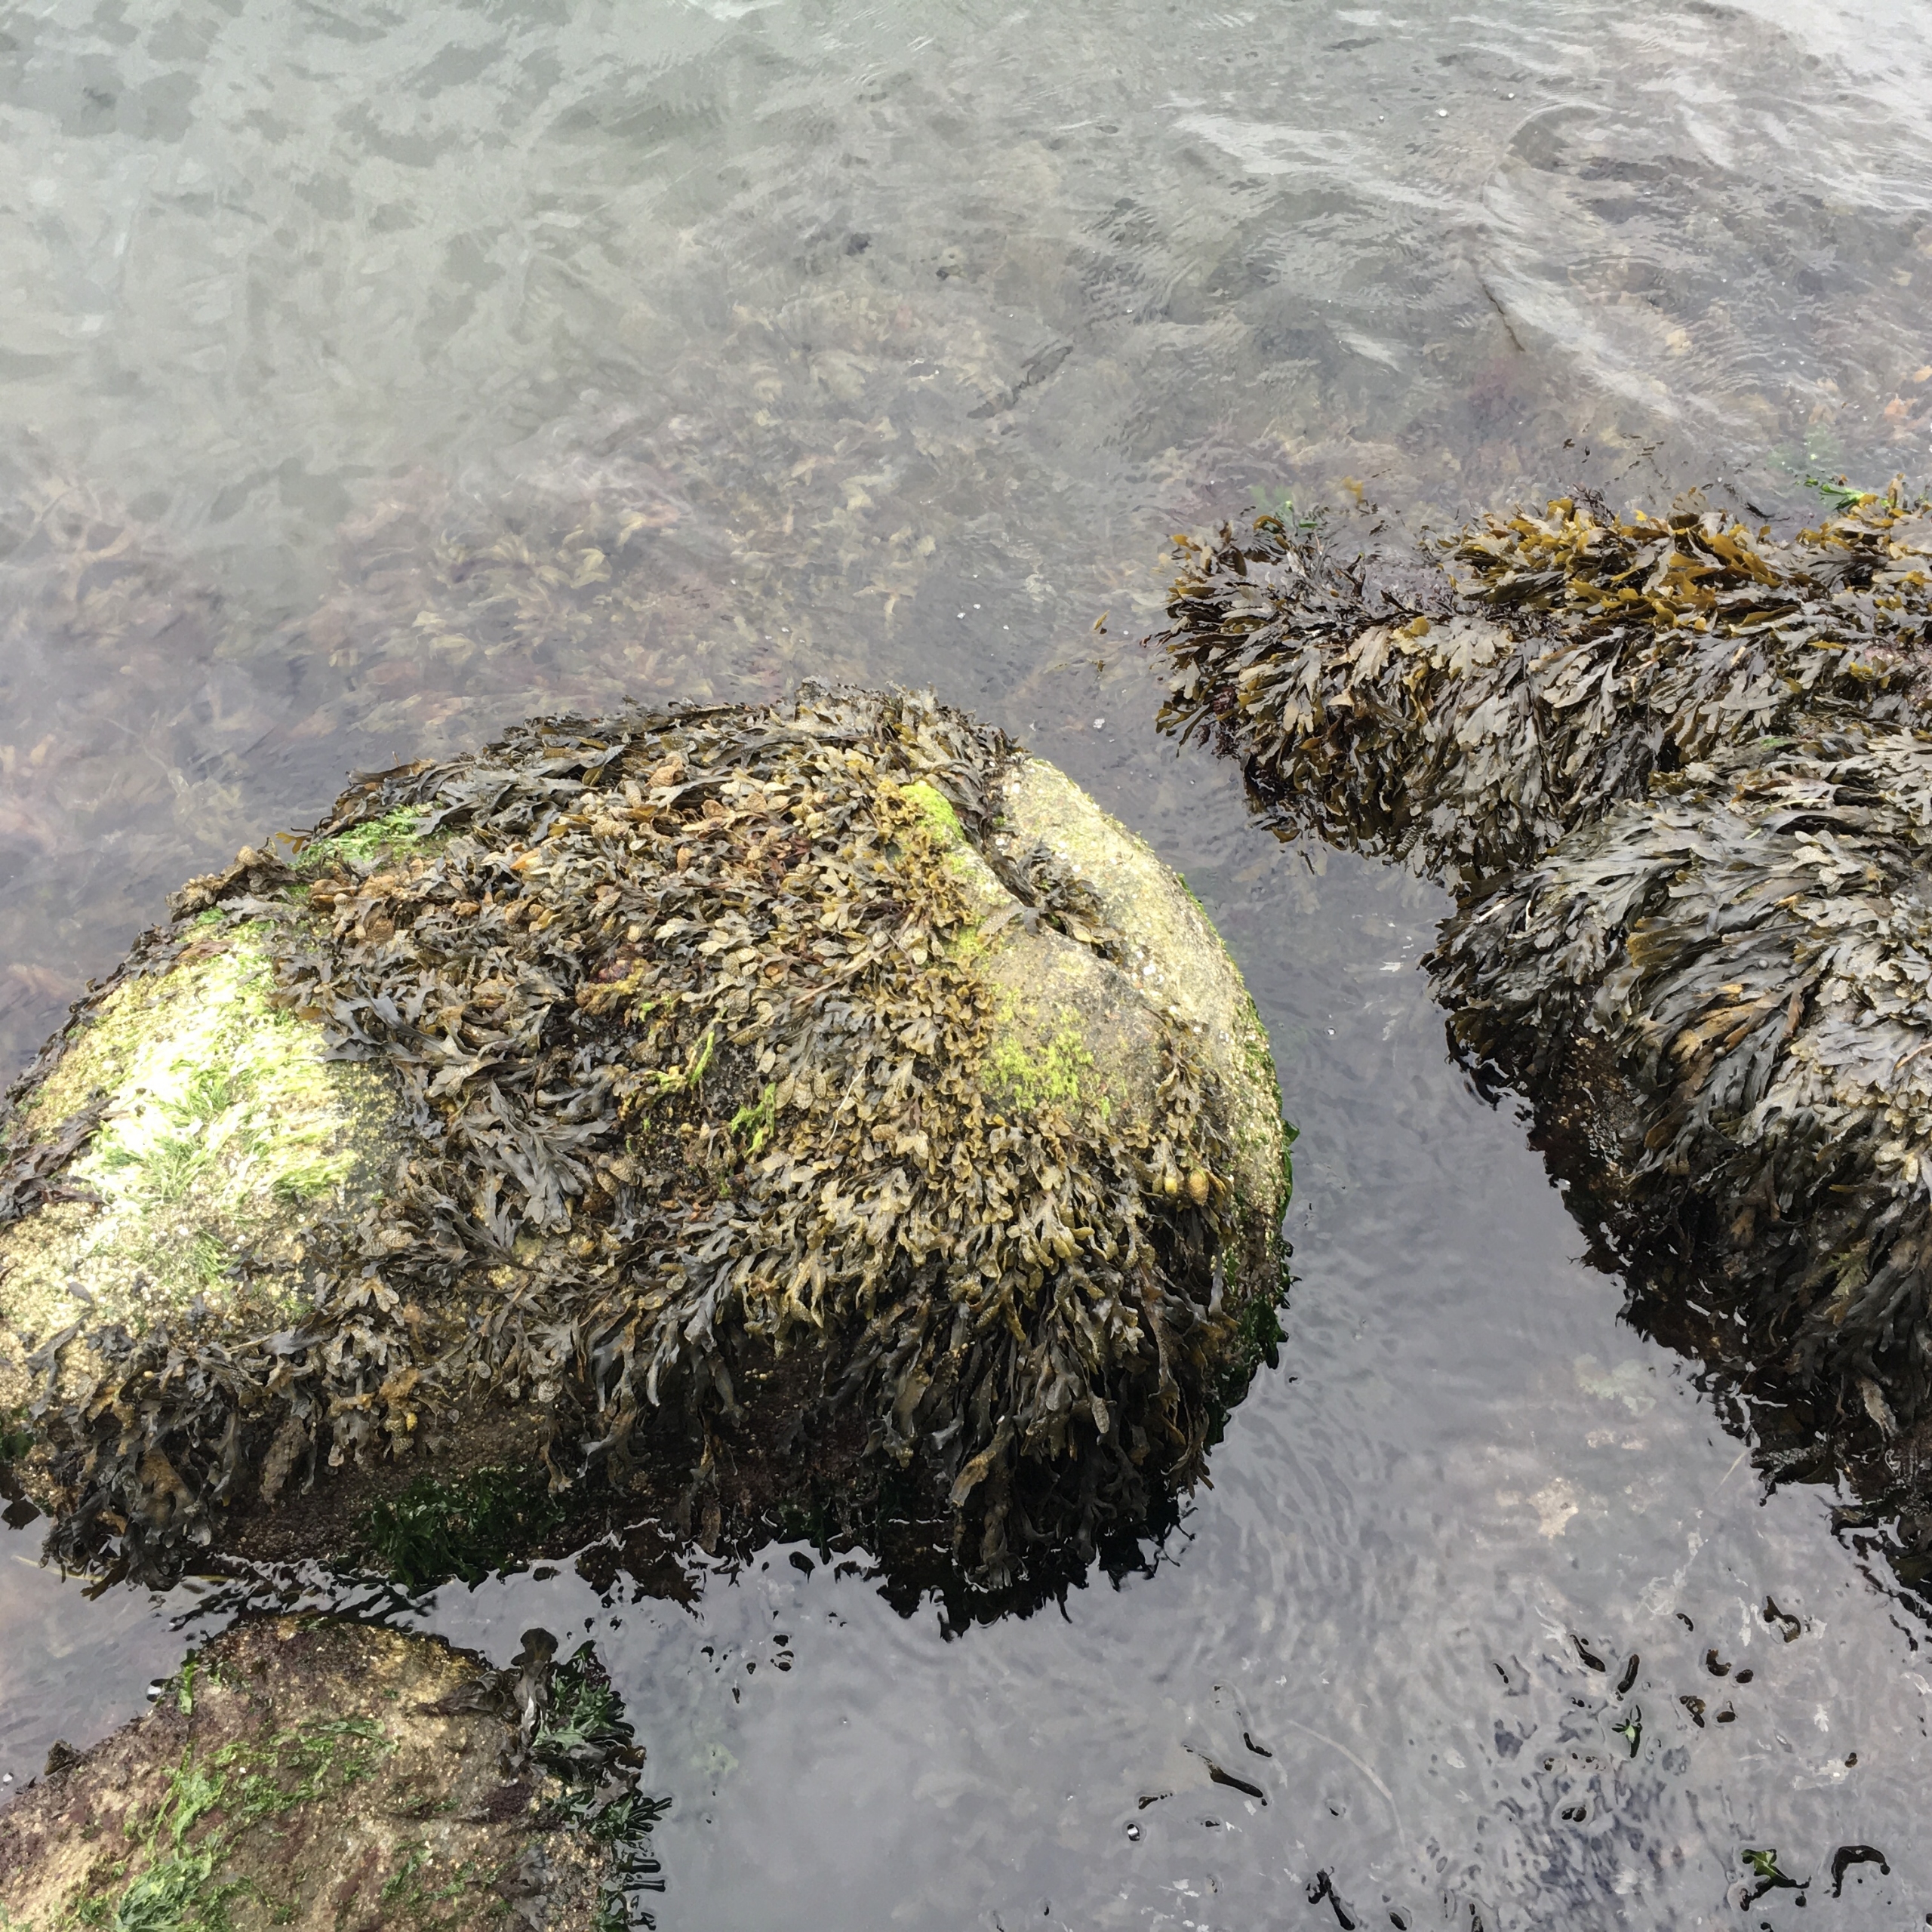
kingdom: Chromista
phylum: Ochrophyta
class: Phaeophyceae
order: Fucales
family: Fucaceae
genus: Fucus
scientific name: Fucus vesiculosus
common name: Blæretang
